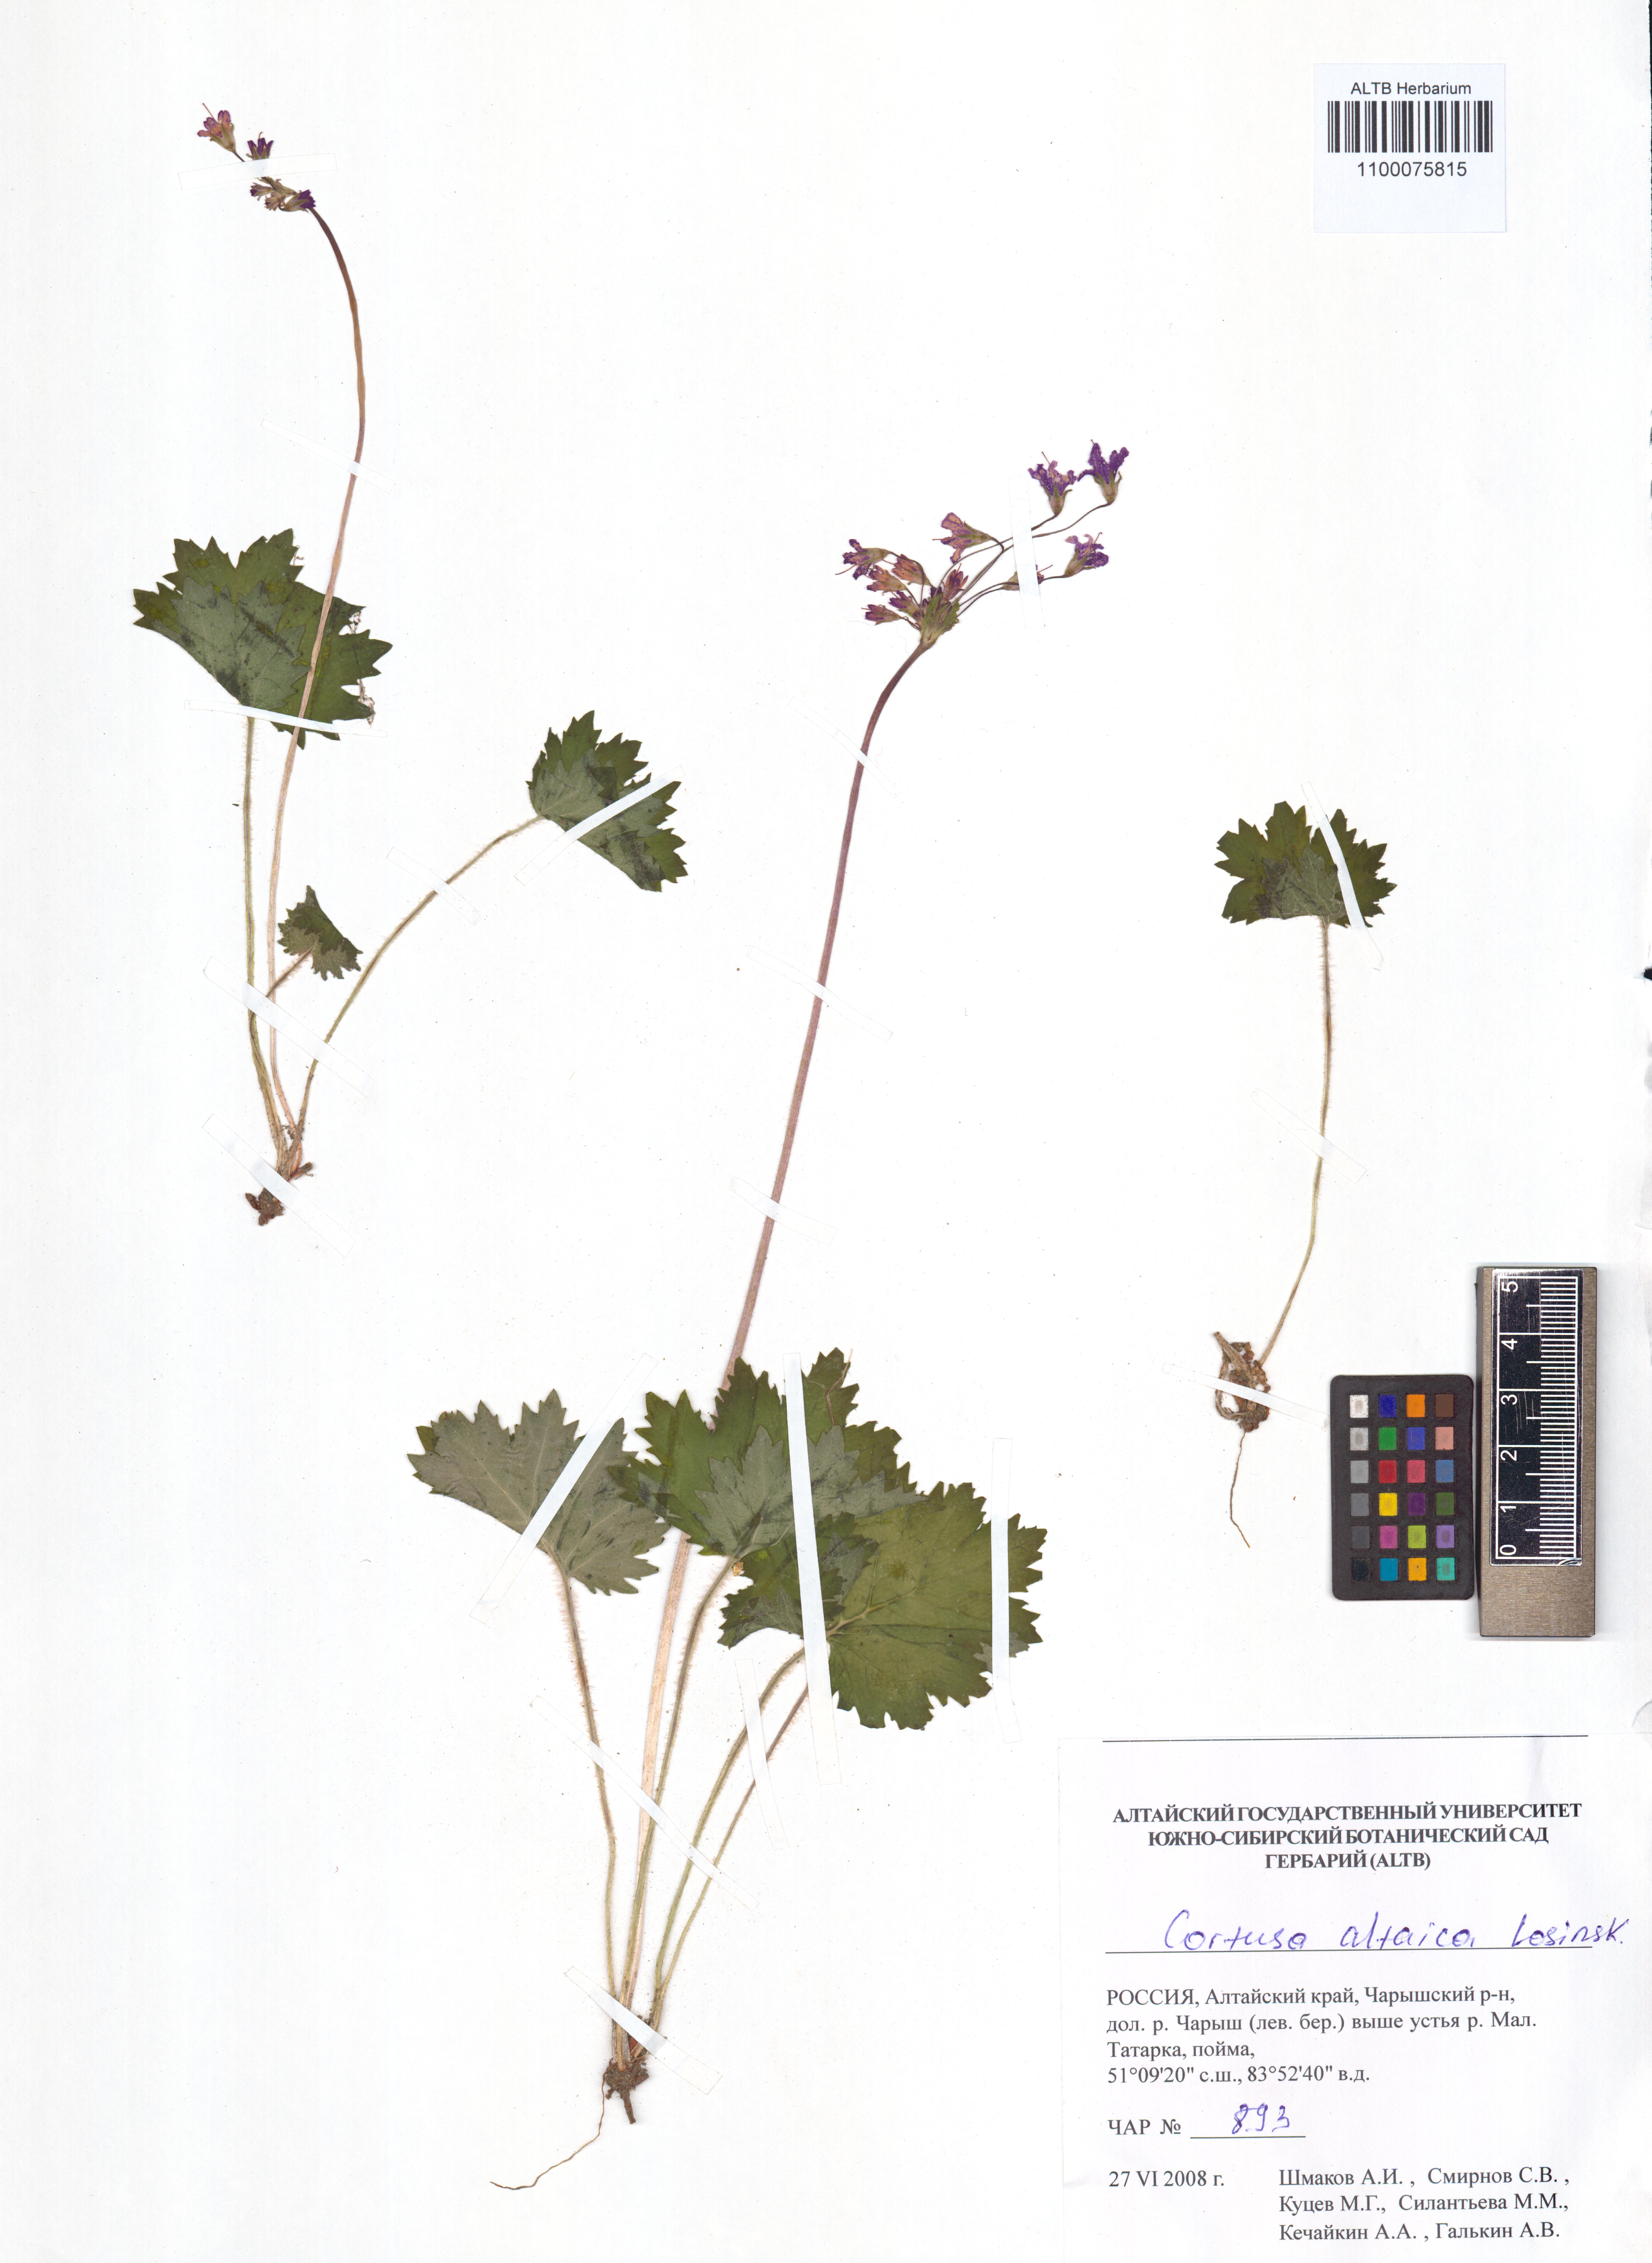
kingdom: Plantae
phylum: Tracheophyta
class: Magnoliopsida
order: Ericales
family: Primulaceae
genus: Primula
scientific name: Primula matthioli
